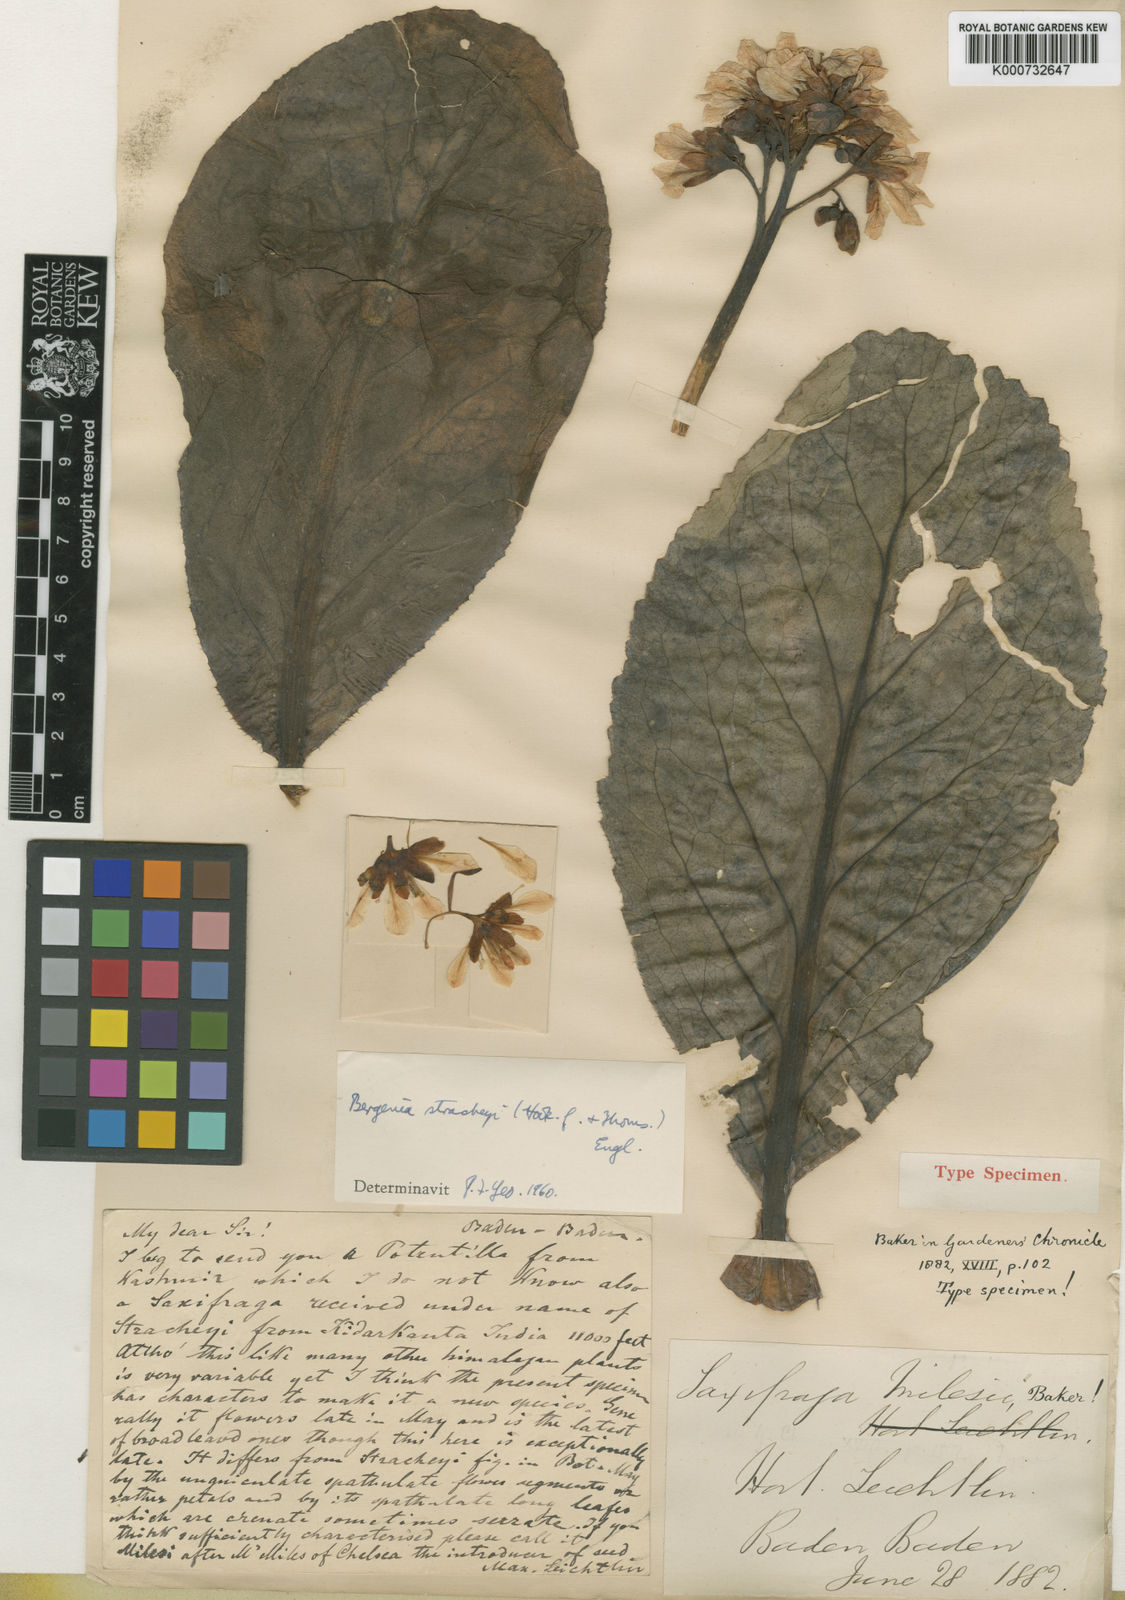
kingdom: Plantae
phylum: Tracheophyta
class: Magnoliopsida
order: Saxifragales
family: Saxifragaceae
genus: Bergenia
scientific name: Bergenia stracheyi
